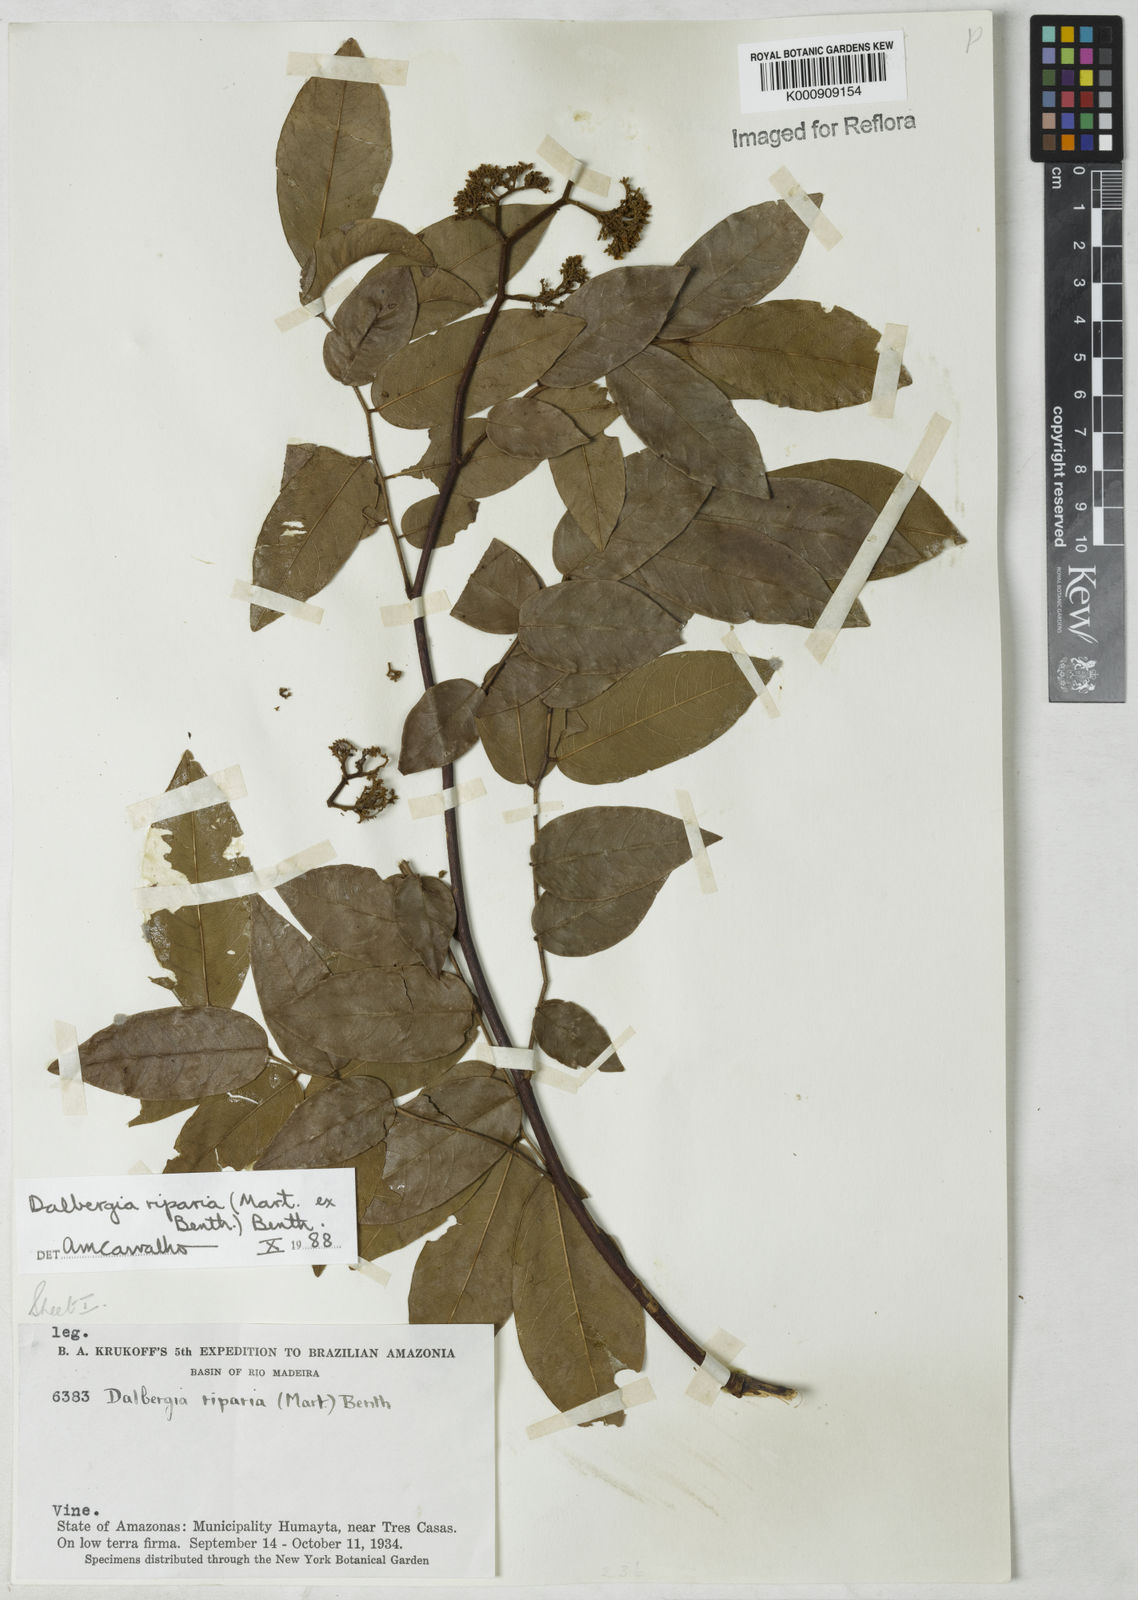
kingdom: Plantae
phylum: Tracheophyta
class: Magnoliopsida
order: Fabales
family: Fabaceae
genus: Dalbergia
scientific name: Dalbergia riparia
